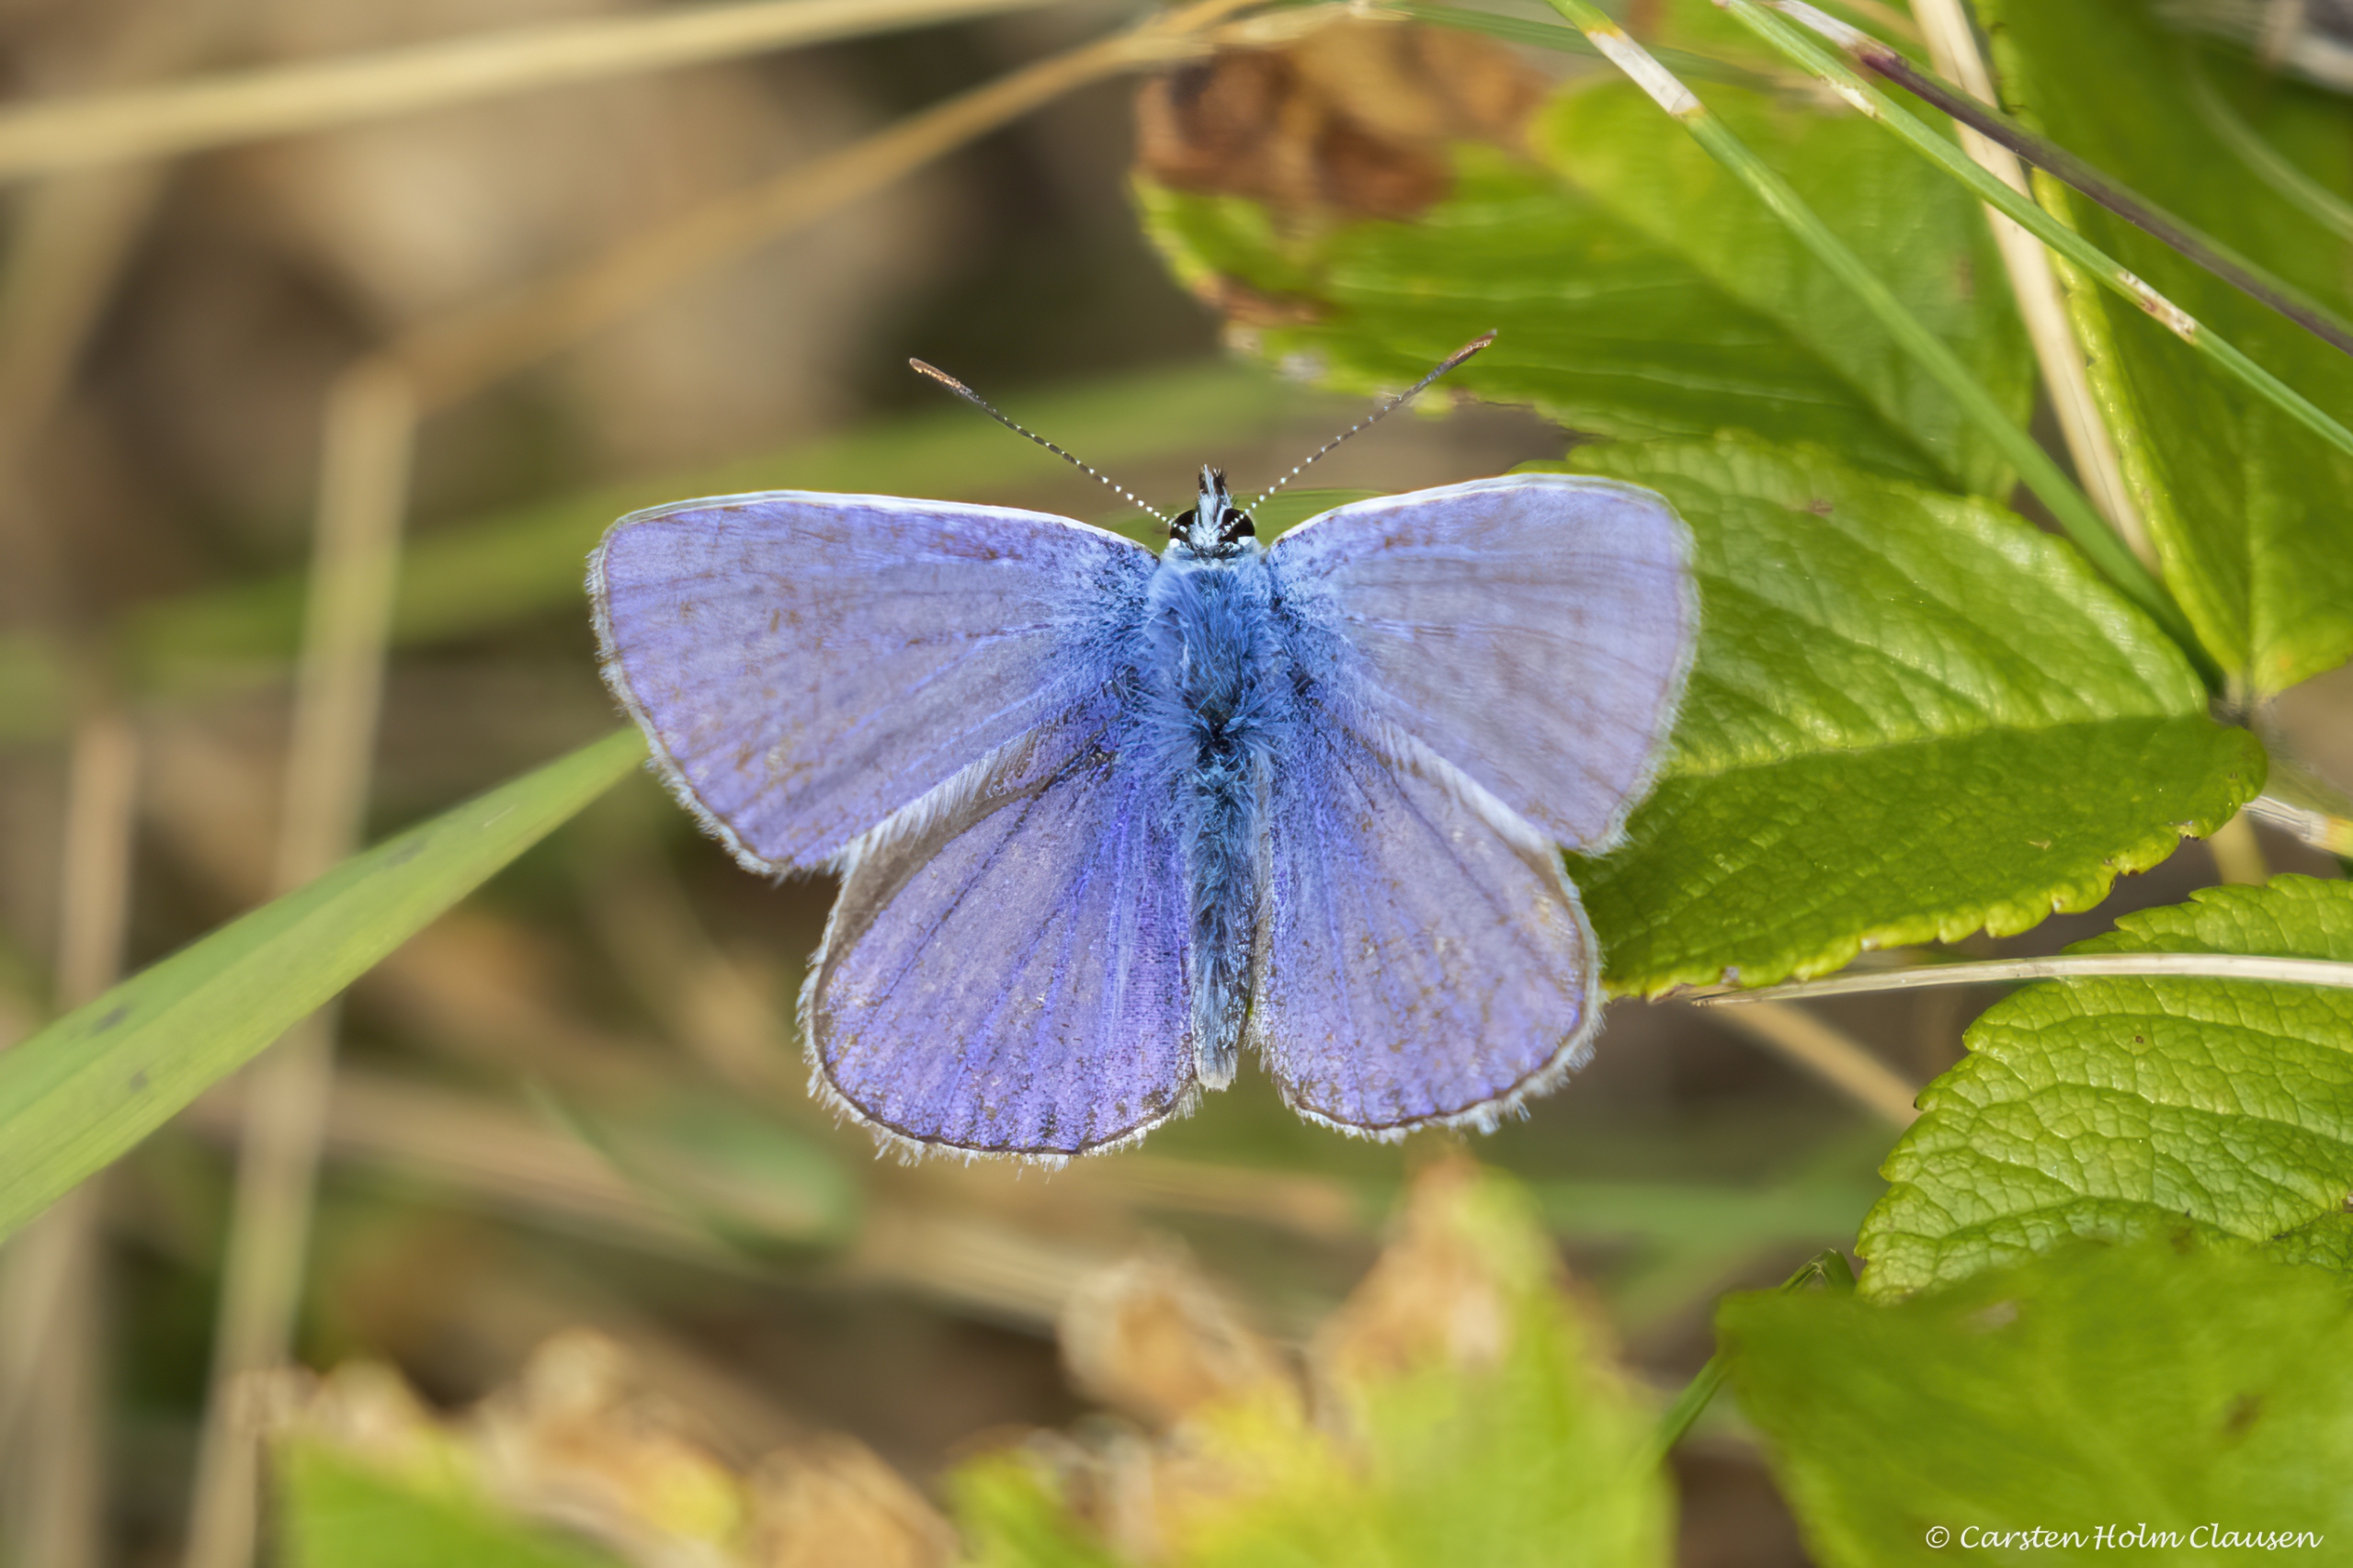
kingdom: Animalia
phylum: Arthropoda
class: Insecta
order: Lepidoptera
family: Lycaenidae
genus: Polyommatus
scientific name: Polyommatus icarus
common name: Almindelig blåfugl
